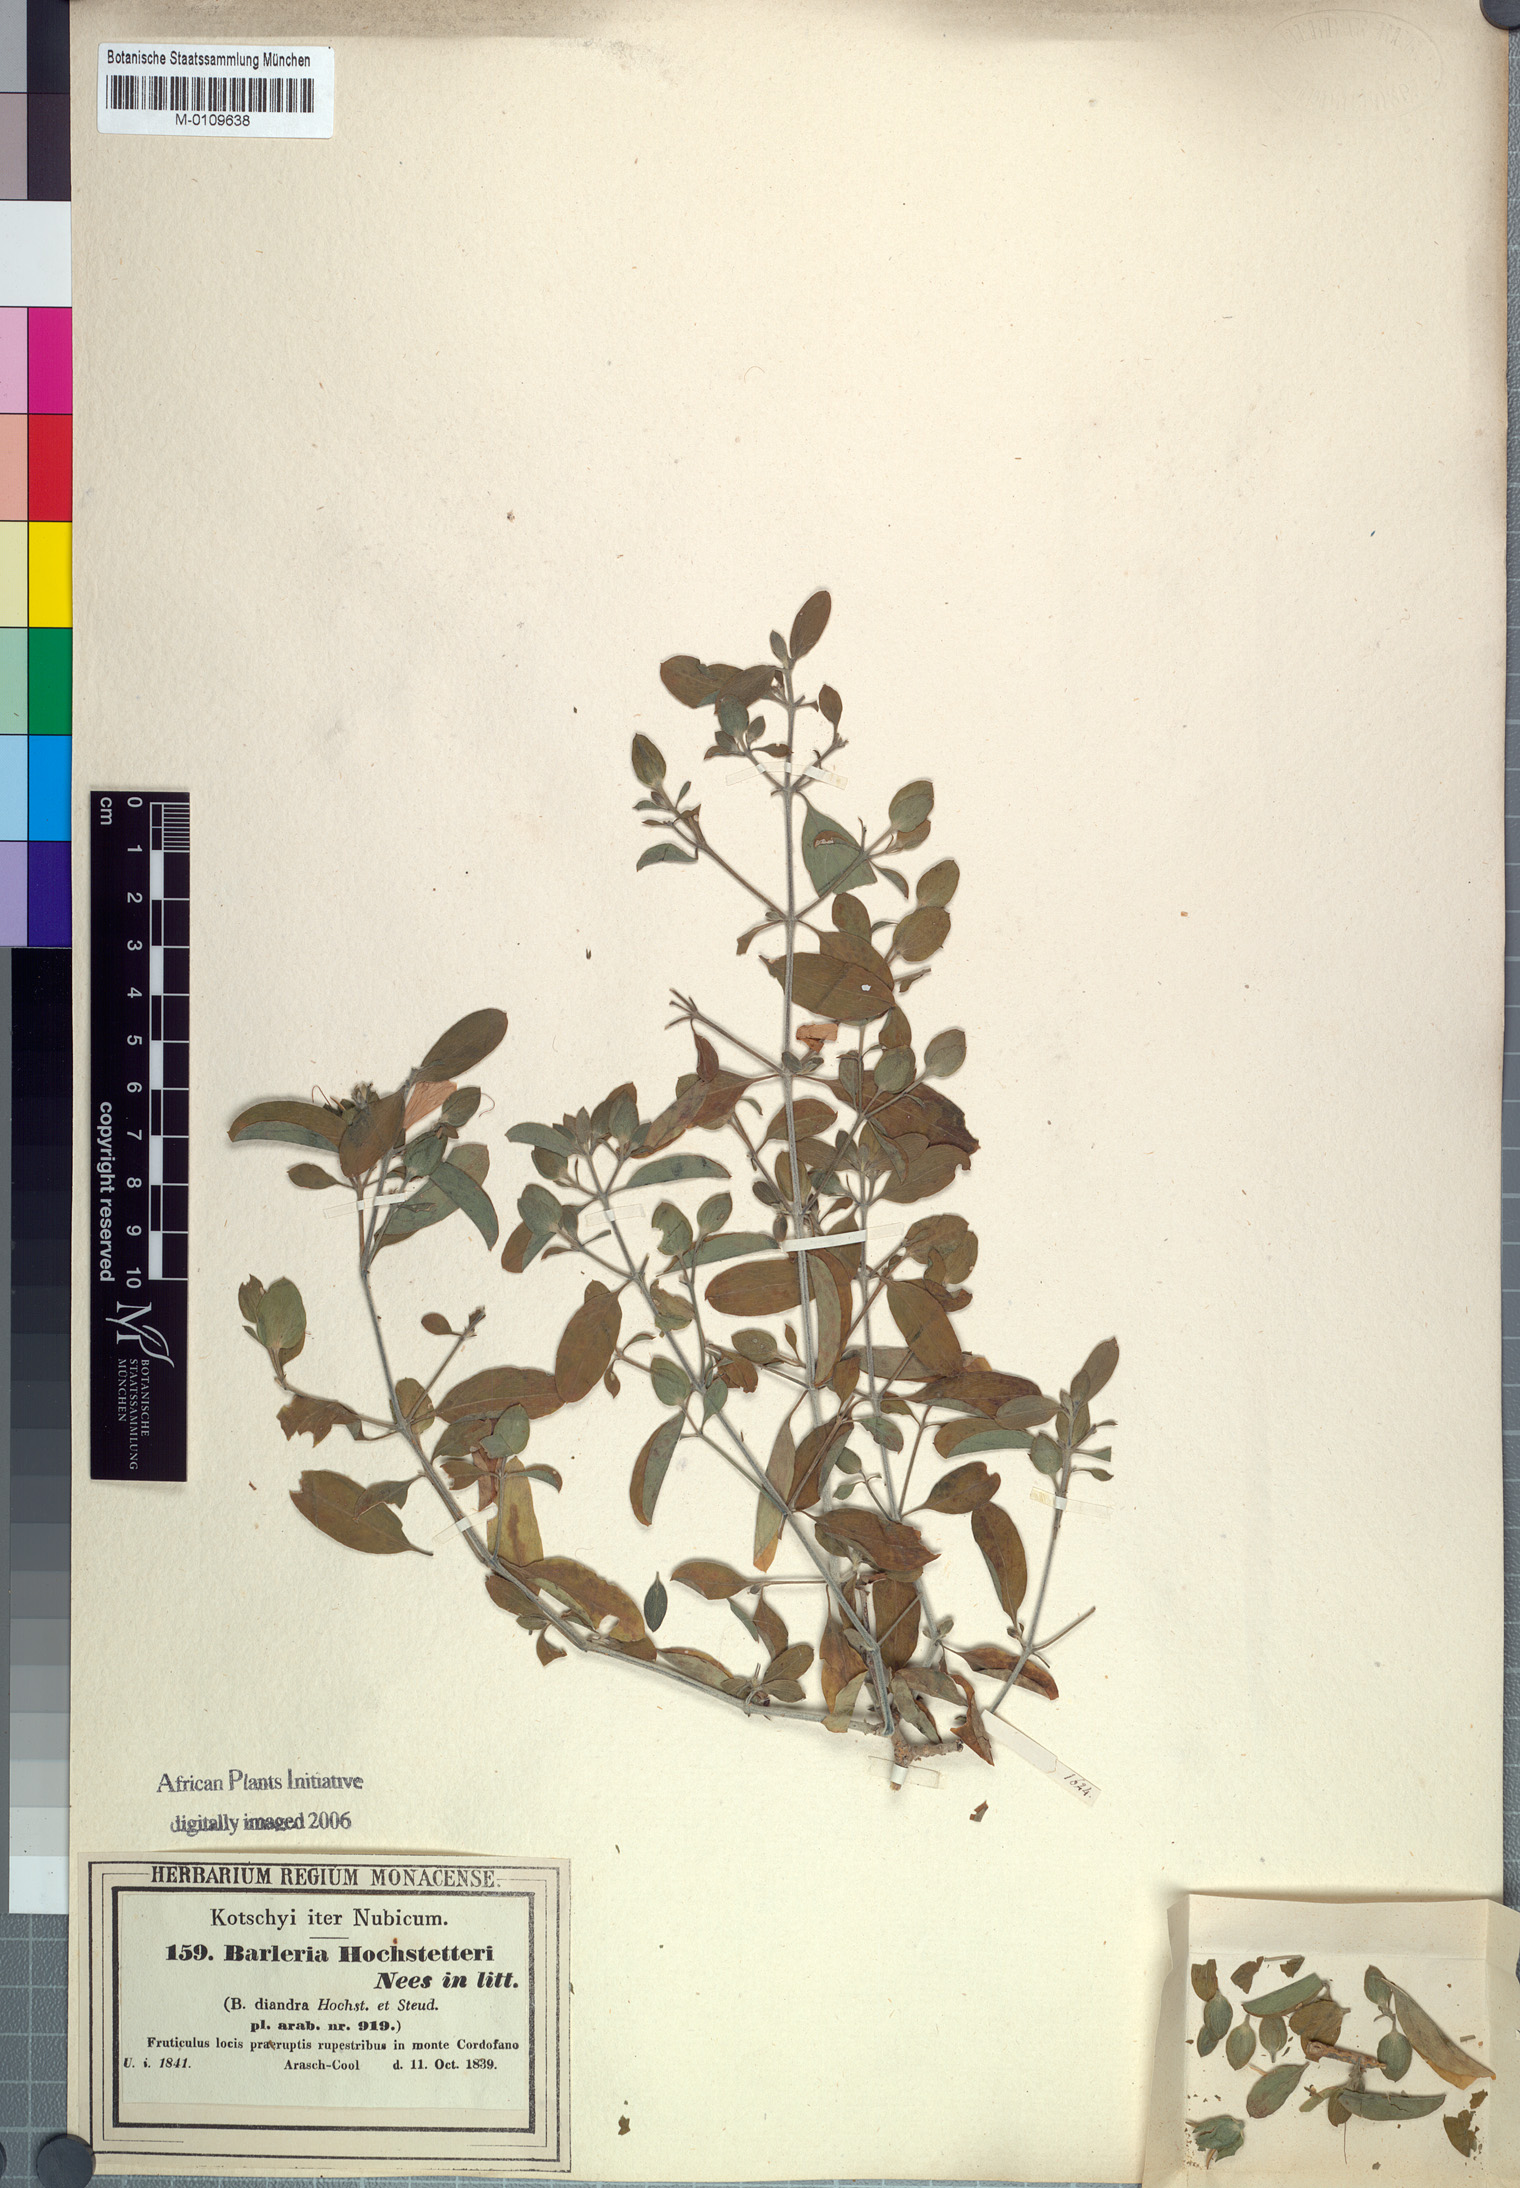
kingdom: Plantae
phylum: Tracheophyta
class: Magnoliopsida
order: Lamiales
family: Acanthaceae
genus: Barleria
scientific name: Barleria hochstetteri
